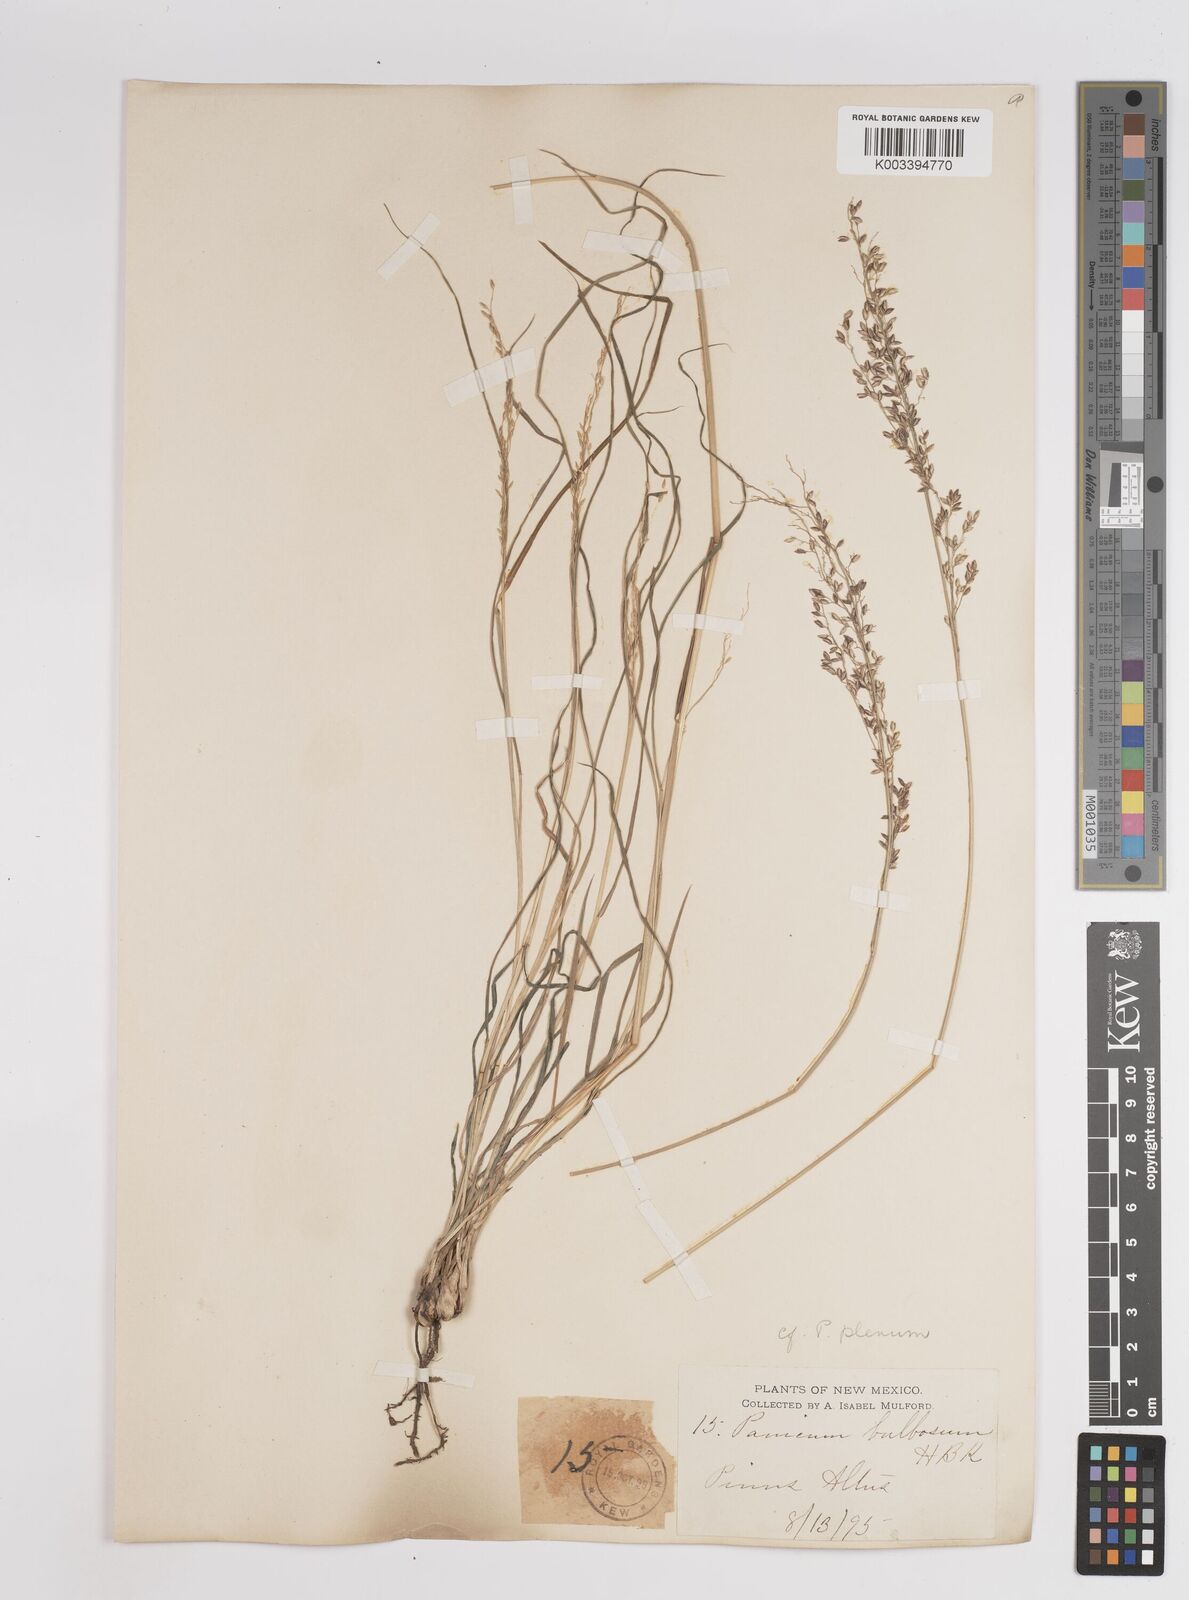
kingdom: Plantae
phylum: Tracheophyta
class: Liliopsida
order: Poales
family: Poaceae
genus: Zuloagaea
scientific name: Zuloagaea bulbosa
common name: Canyon panic grass
